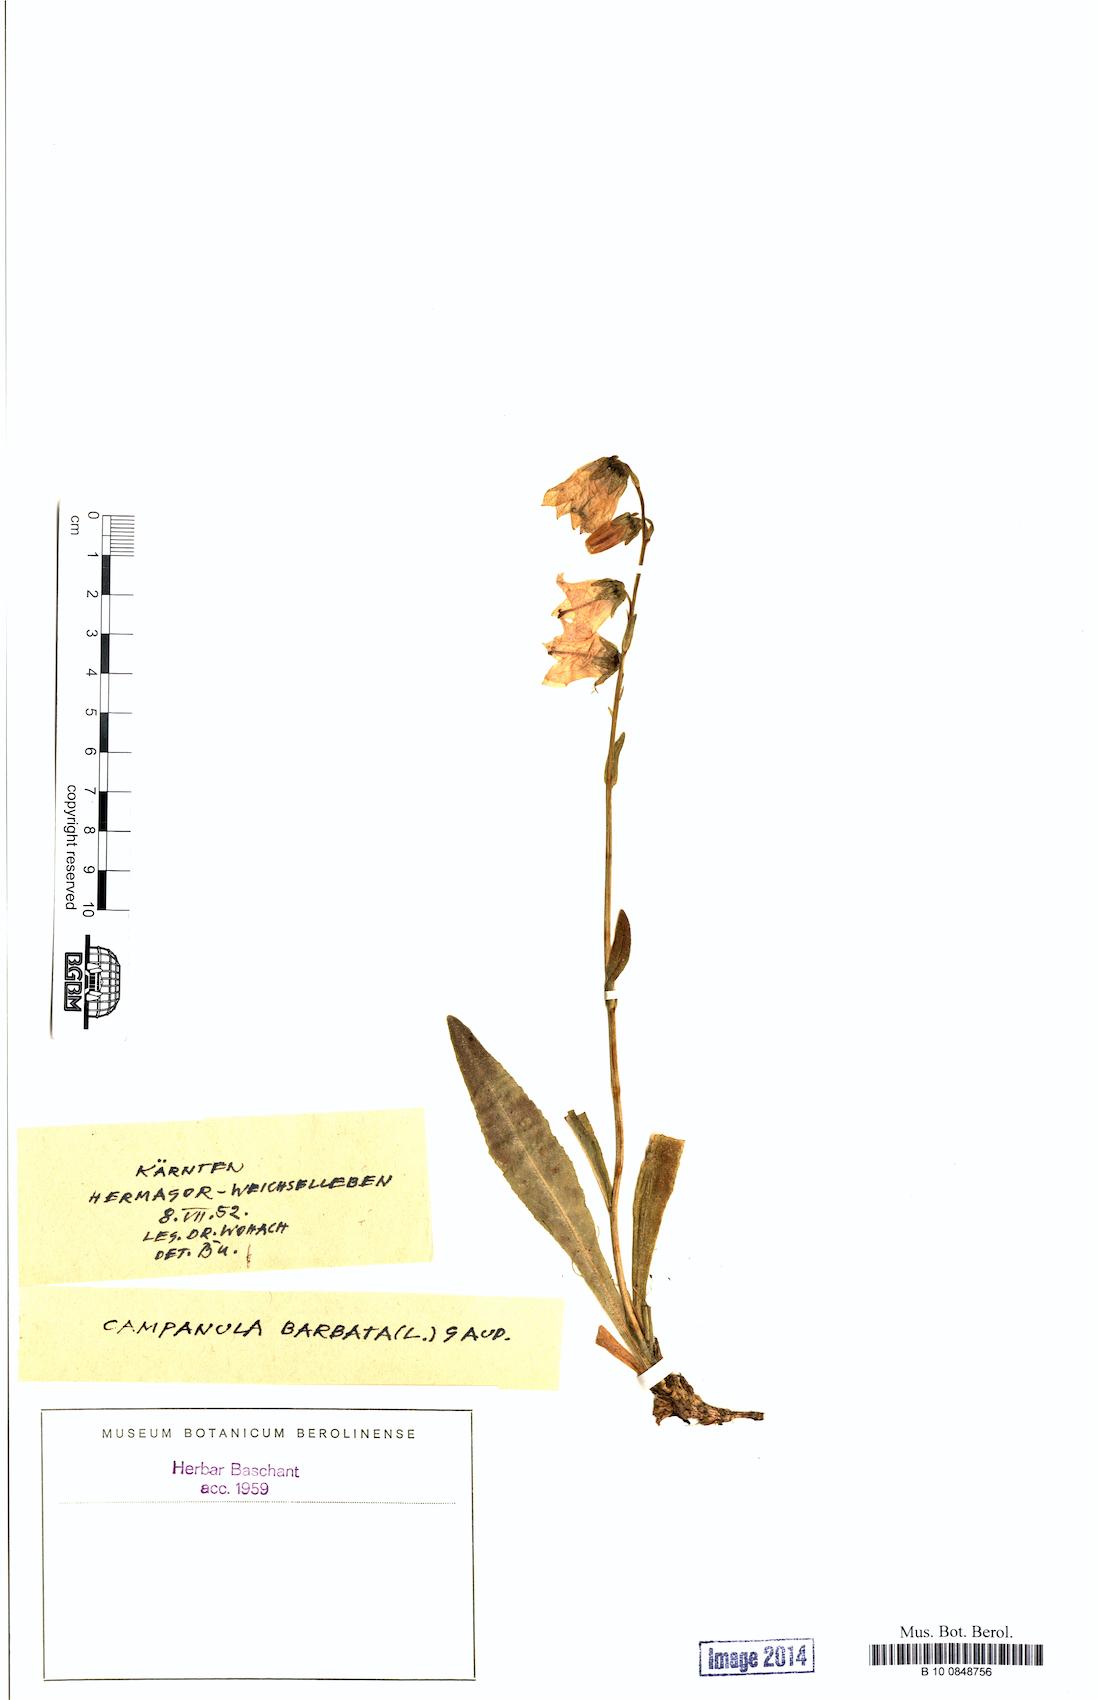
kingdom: Plantae
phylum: Tracheophyta
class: Magnoliopsida
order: Asterales
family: Campanulaceae
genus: Campanula
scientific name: Campanula barbata
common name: Bearded bellflower
